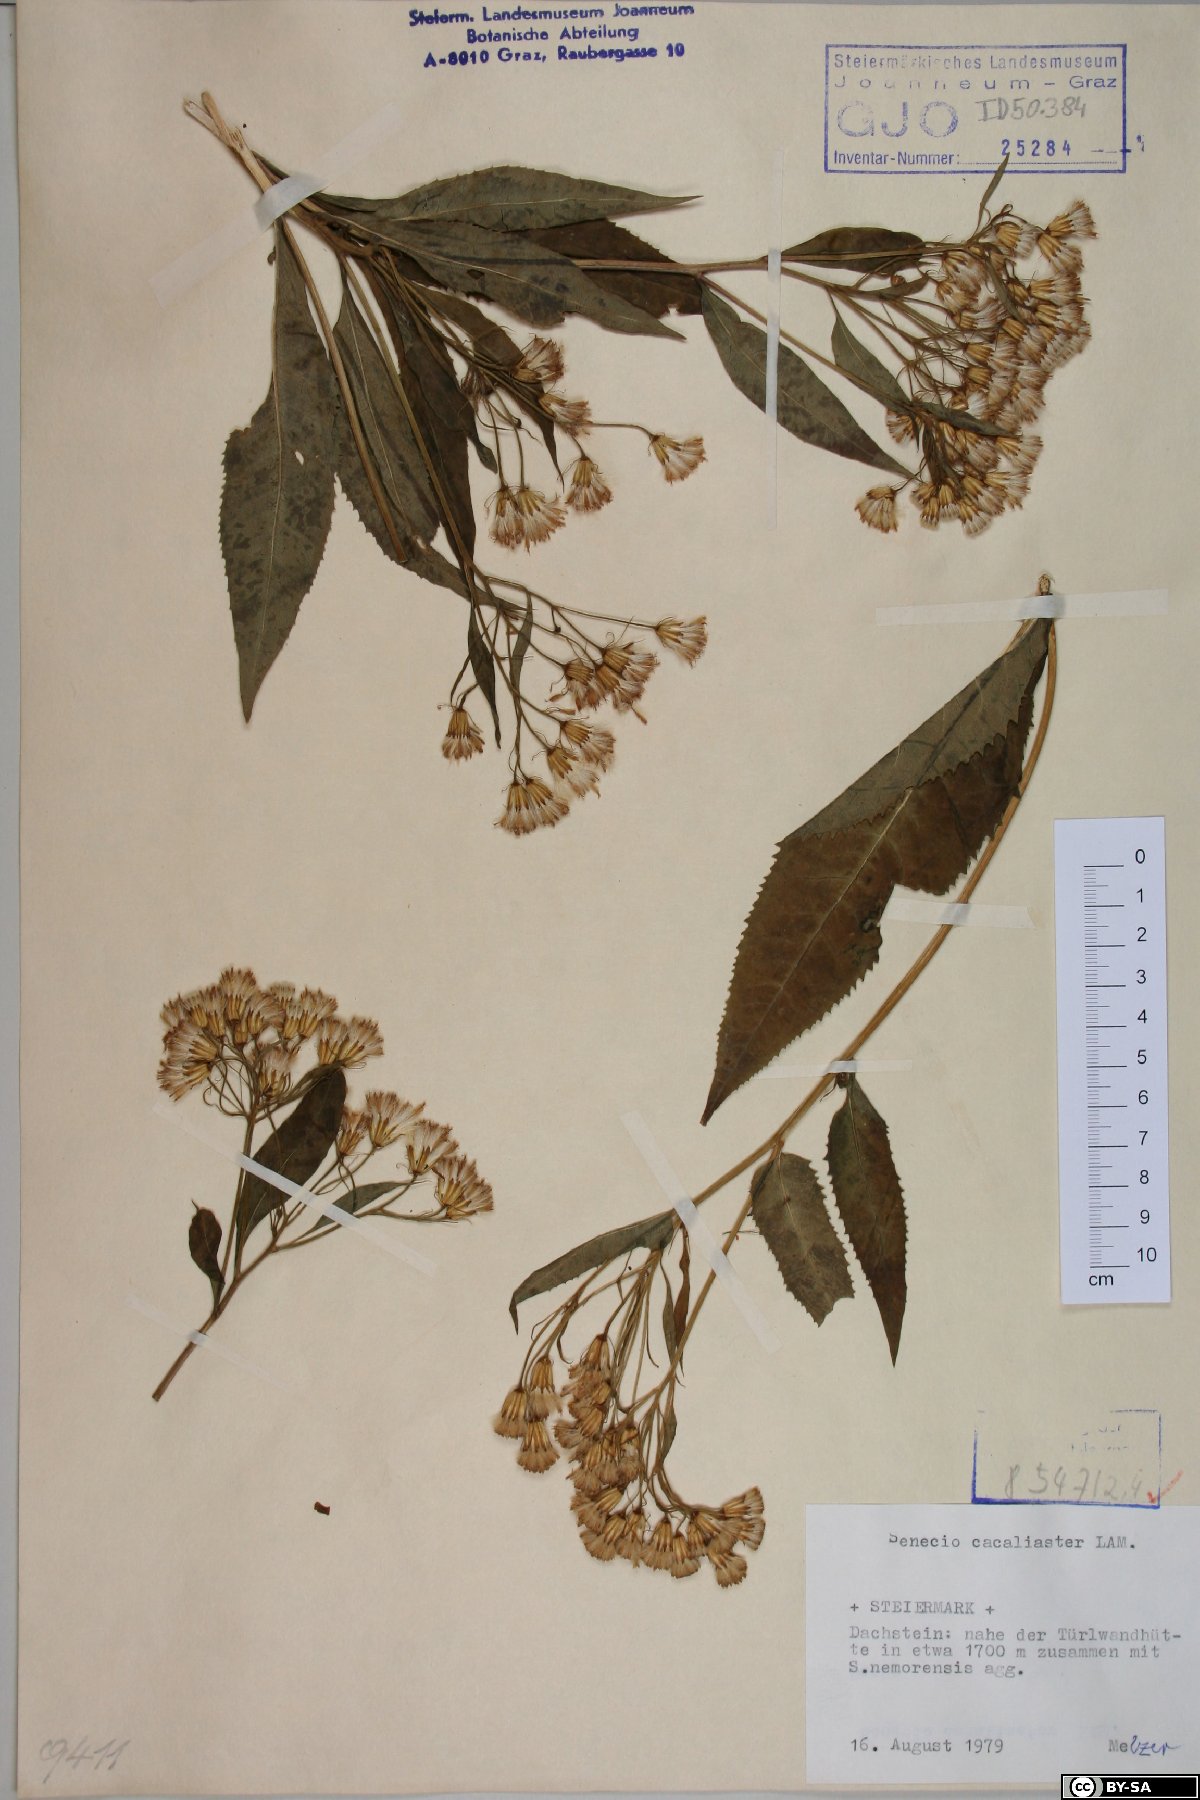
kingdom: Plantae
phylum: Tracheophyta
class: Magnoliopsida
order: Asterales
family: Asteraceae
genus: Senecio
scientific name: Senecio cacaliaster
